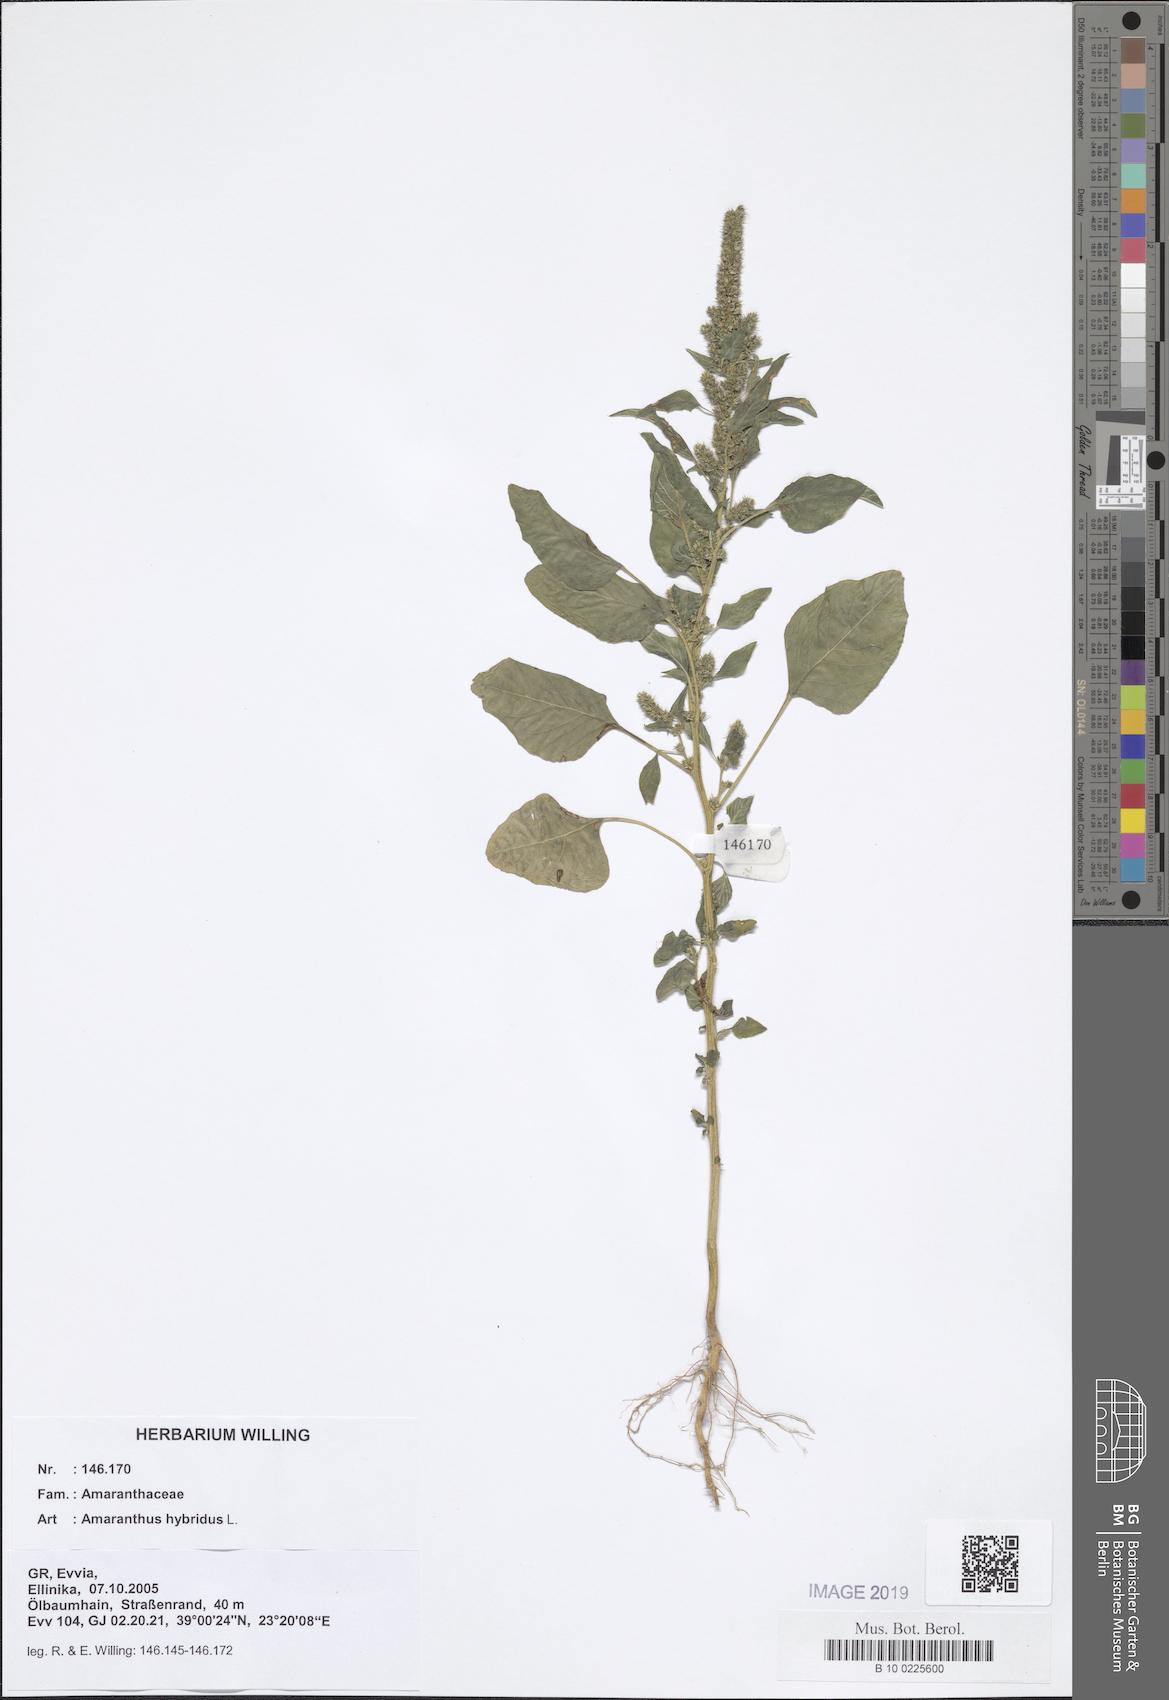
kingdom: Plantae
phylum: Tracheophyta
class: Magnoliopsida
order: Caryophyllales
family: Amaranthaceae
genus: Amaranthus
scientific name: Amaranthus hybridus
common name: Green amaranth
